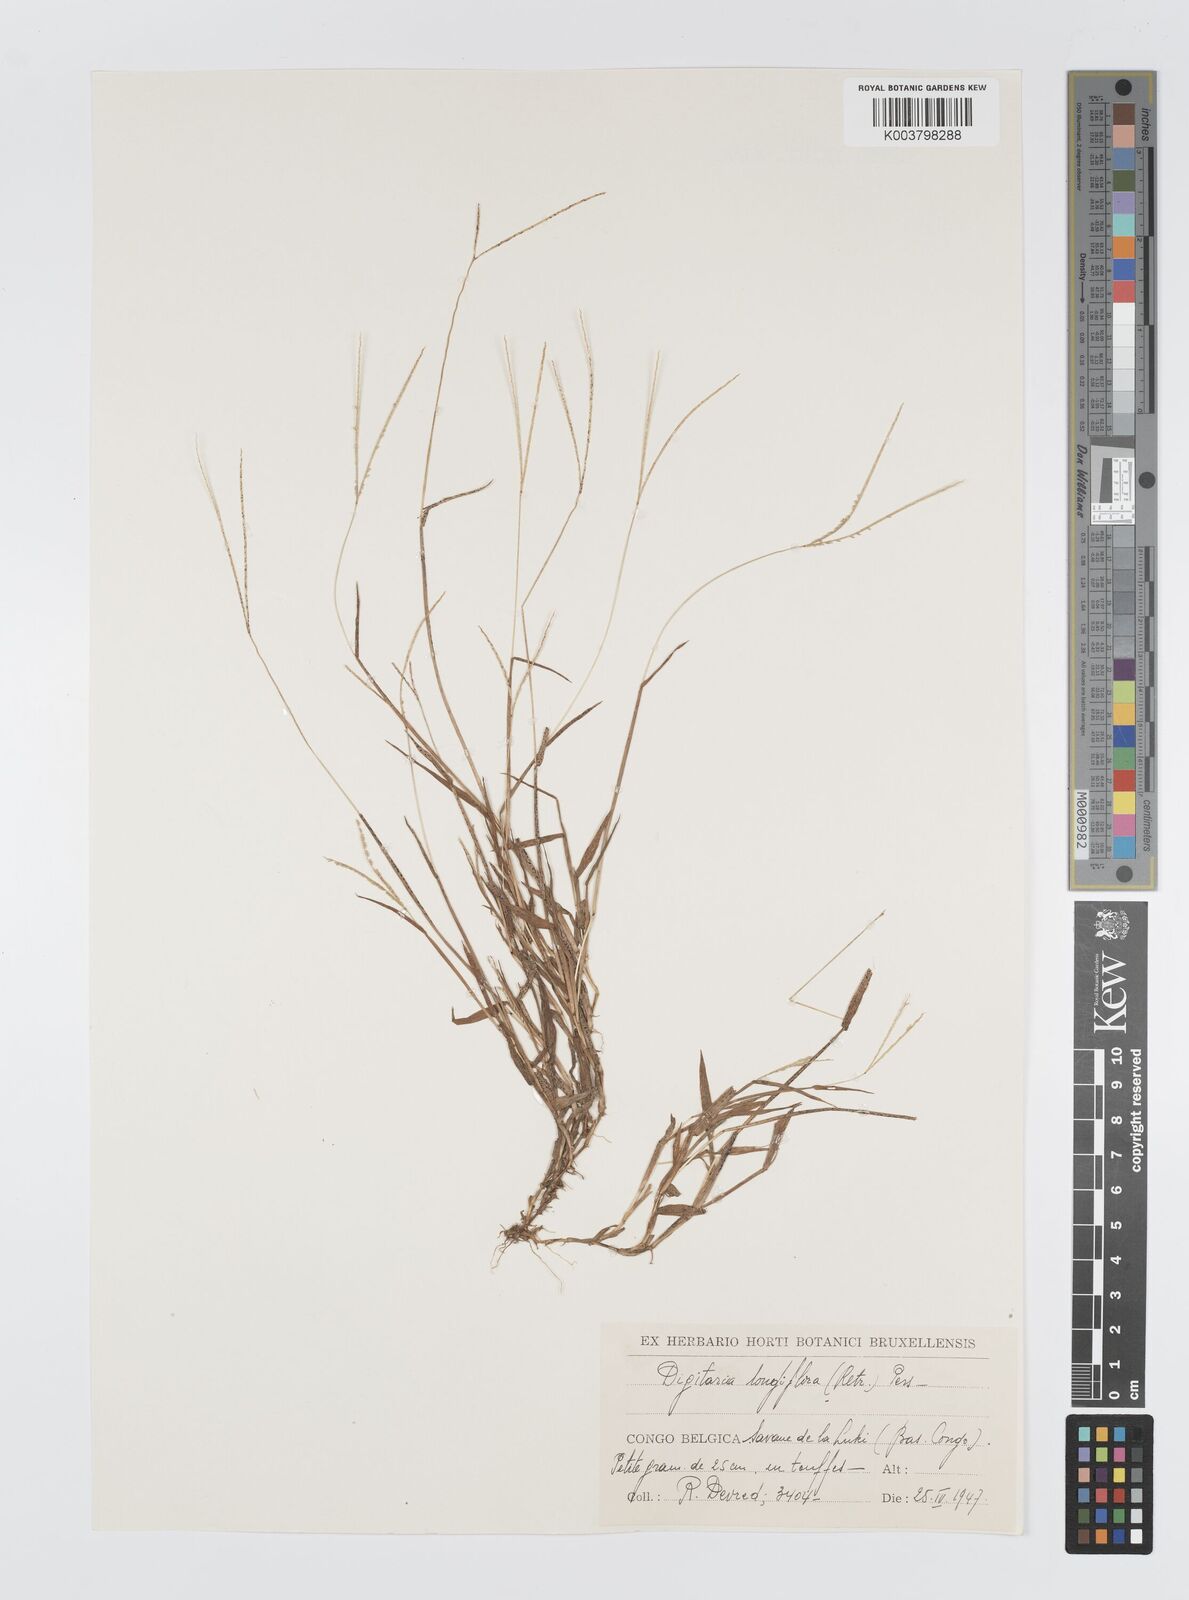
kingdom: Plantae
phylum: Tracheophyta
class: Liliopsida
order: Poales
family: Poaceae
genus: Digitaria
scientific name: Digitaria longiflora
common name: Wire crabgrass
